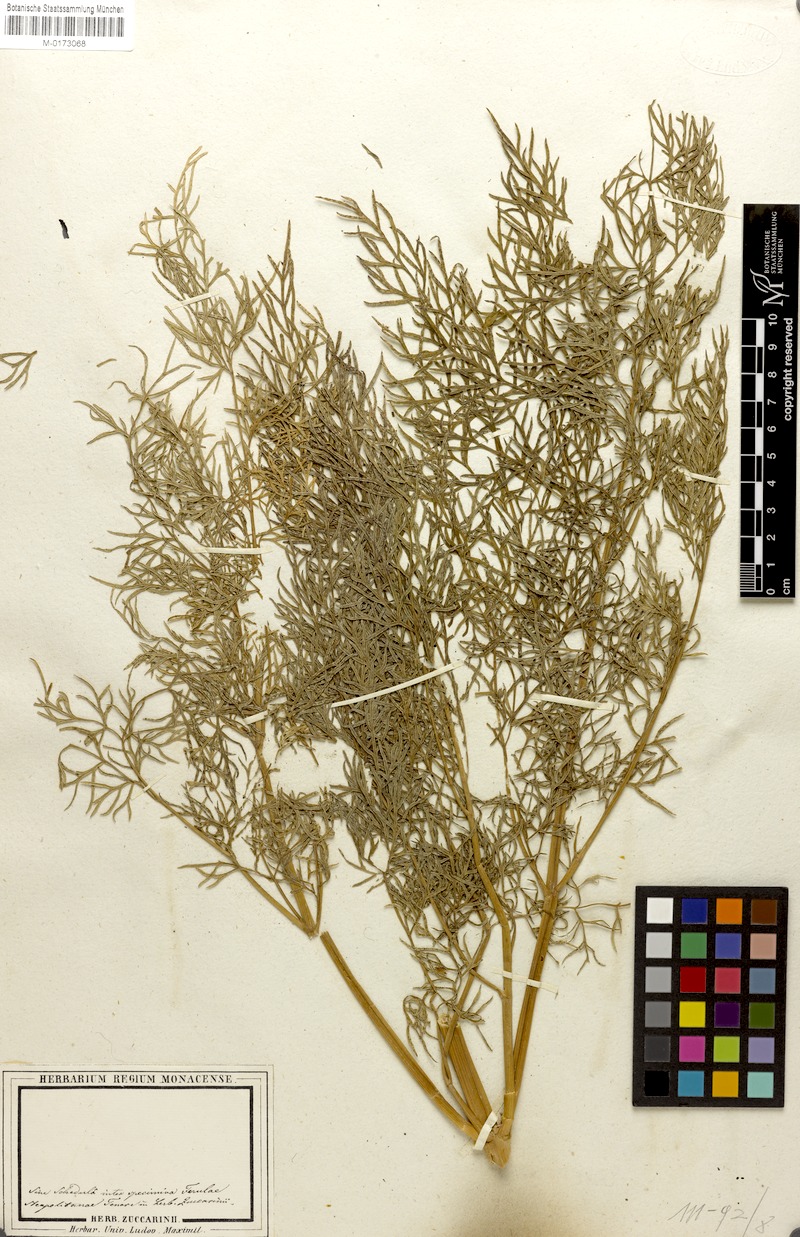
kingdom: Plantae
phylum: Tracheophyta
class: Magnoliopsida
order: Apiales
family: Apiaceae
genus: Ferula
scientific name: Ferula communis
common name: Giant fennel
